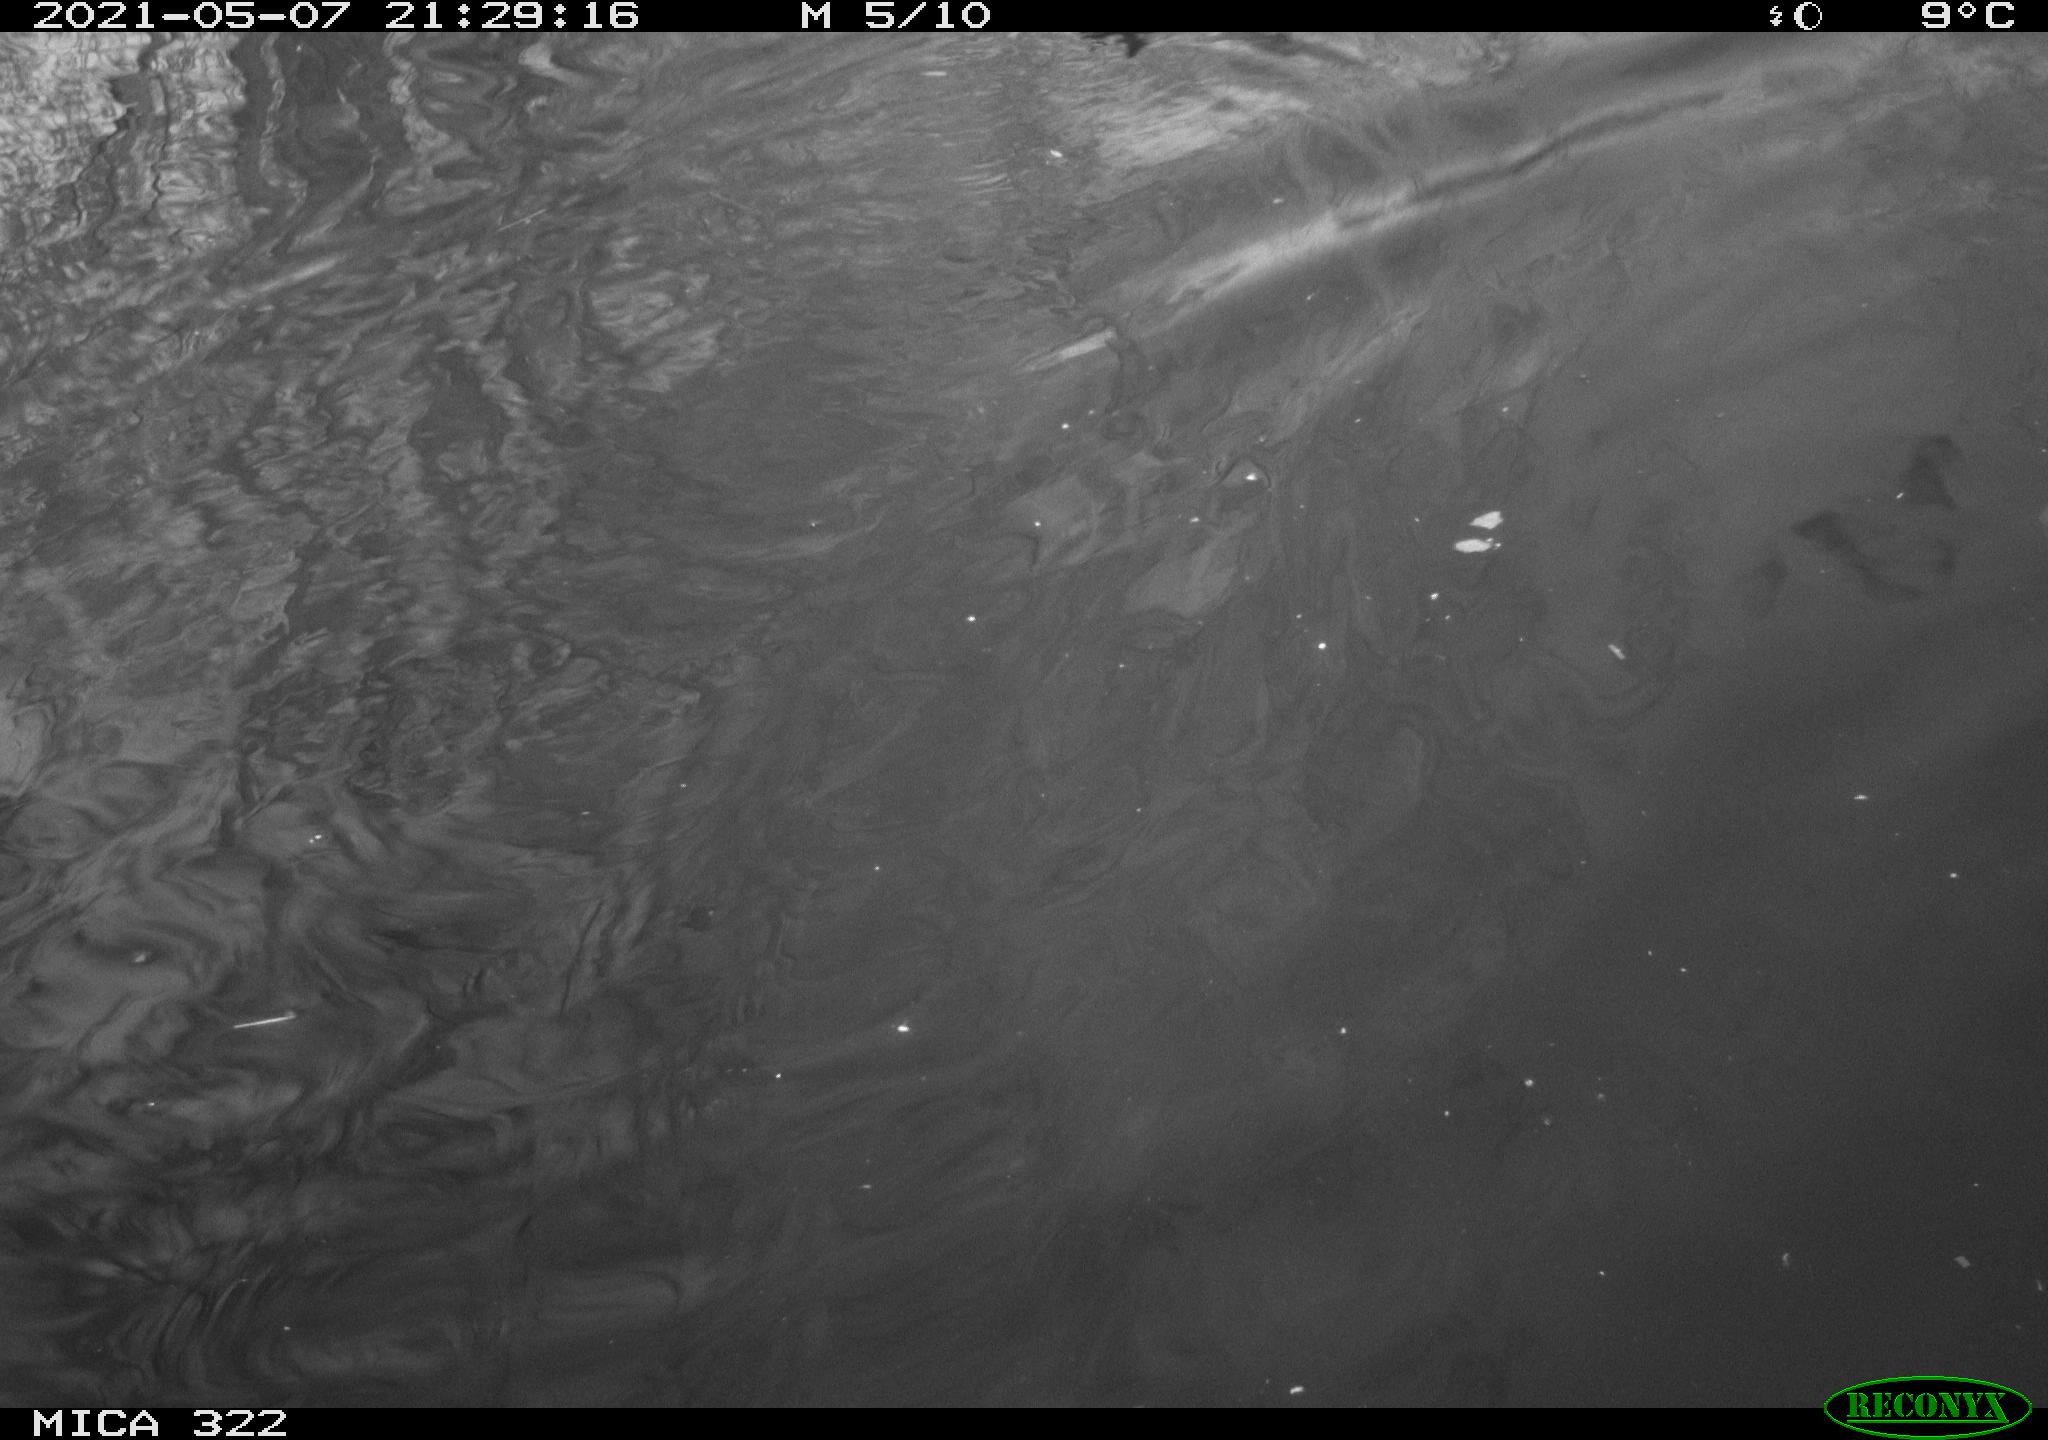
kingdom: Animalia
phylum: Chordata
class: Aves
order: Anseriformes
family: Anatidae
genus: Mareca
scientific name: Mareca strepera
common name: Gadwall
